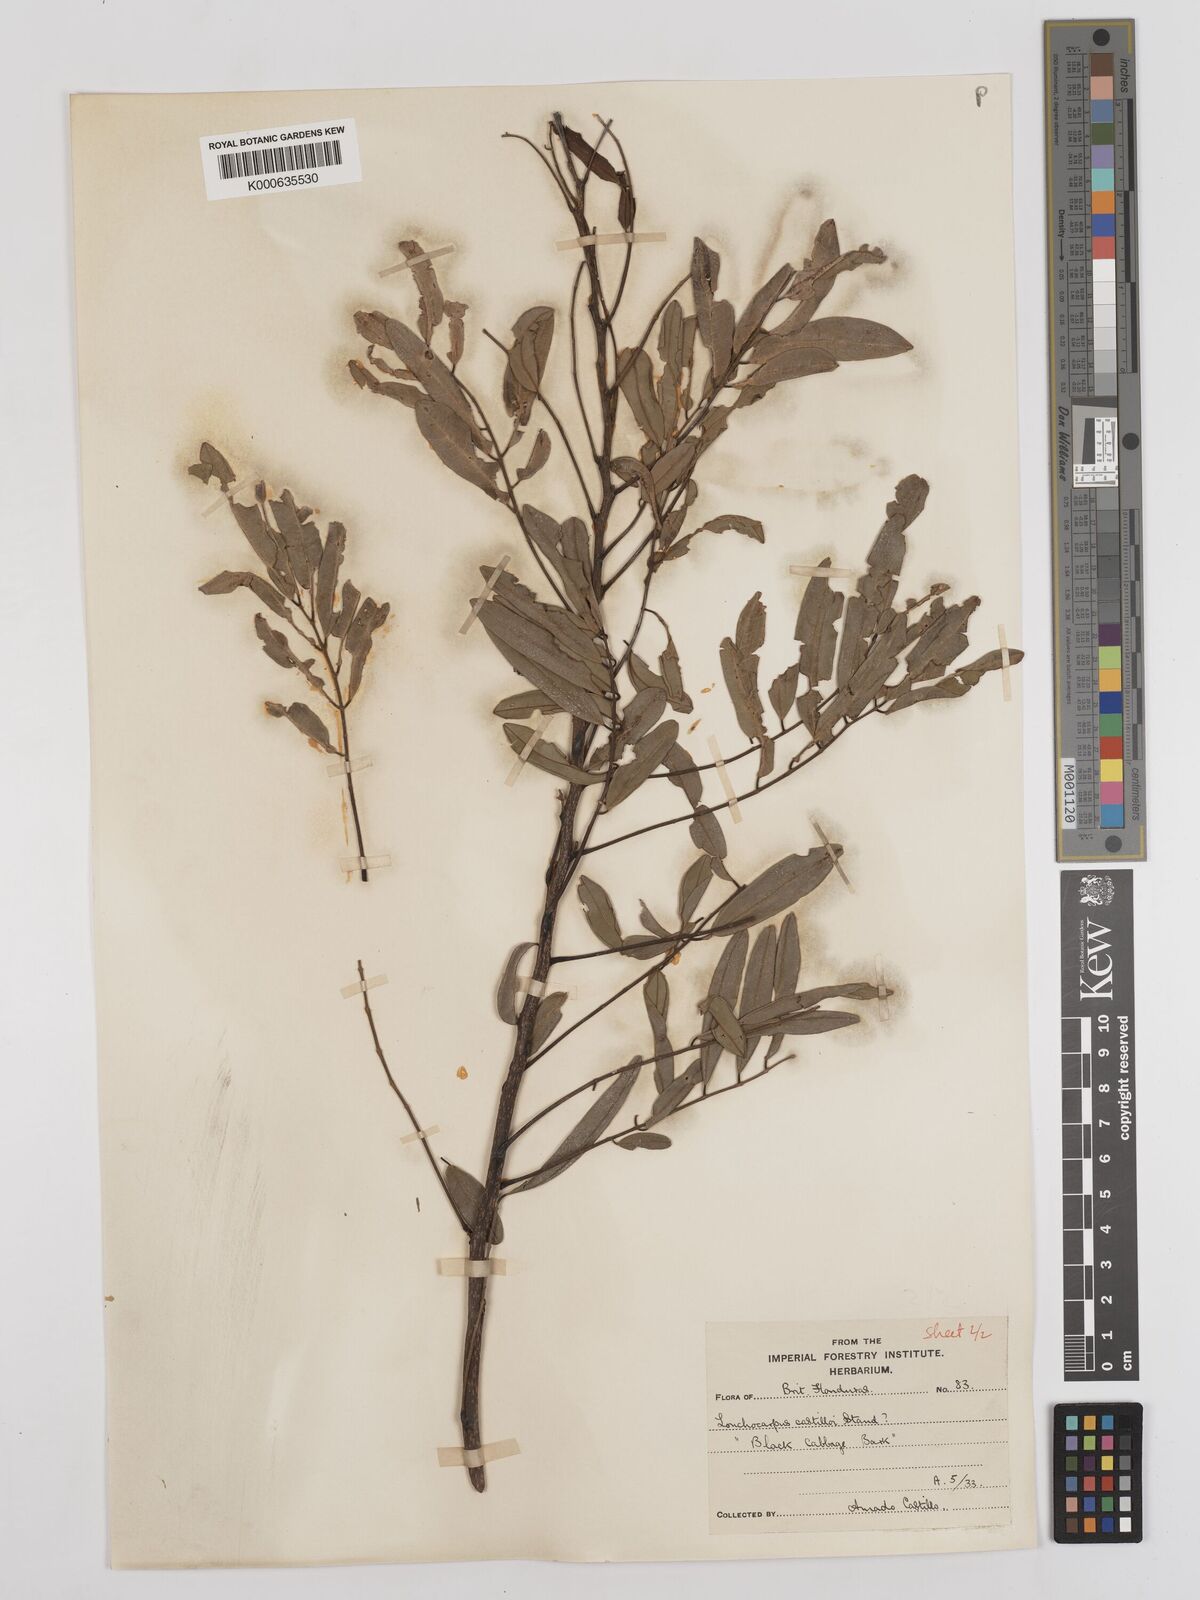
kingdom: Plantae
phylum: Tracheophyta
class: Magnoliopsida
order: Fabales
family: Fabaceae
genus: Lonchocarpus
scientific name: Lonchocarpus castilloi
